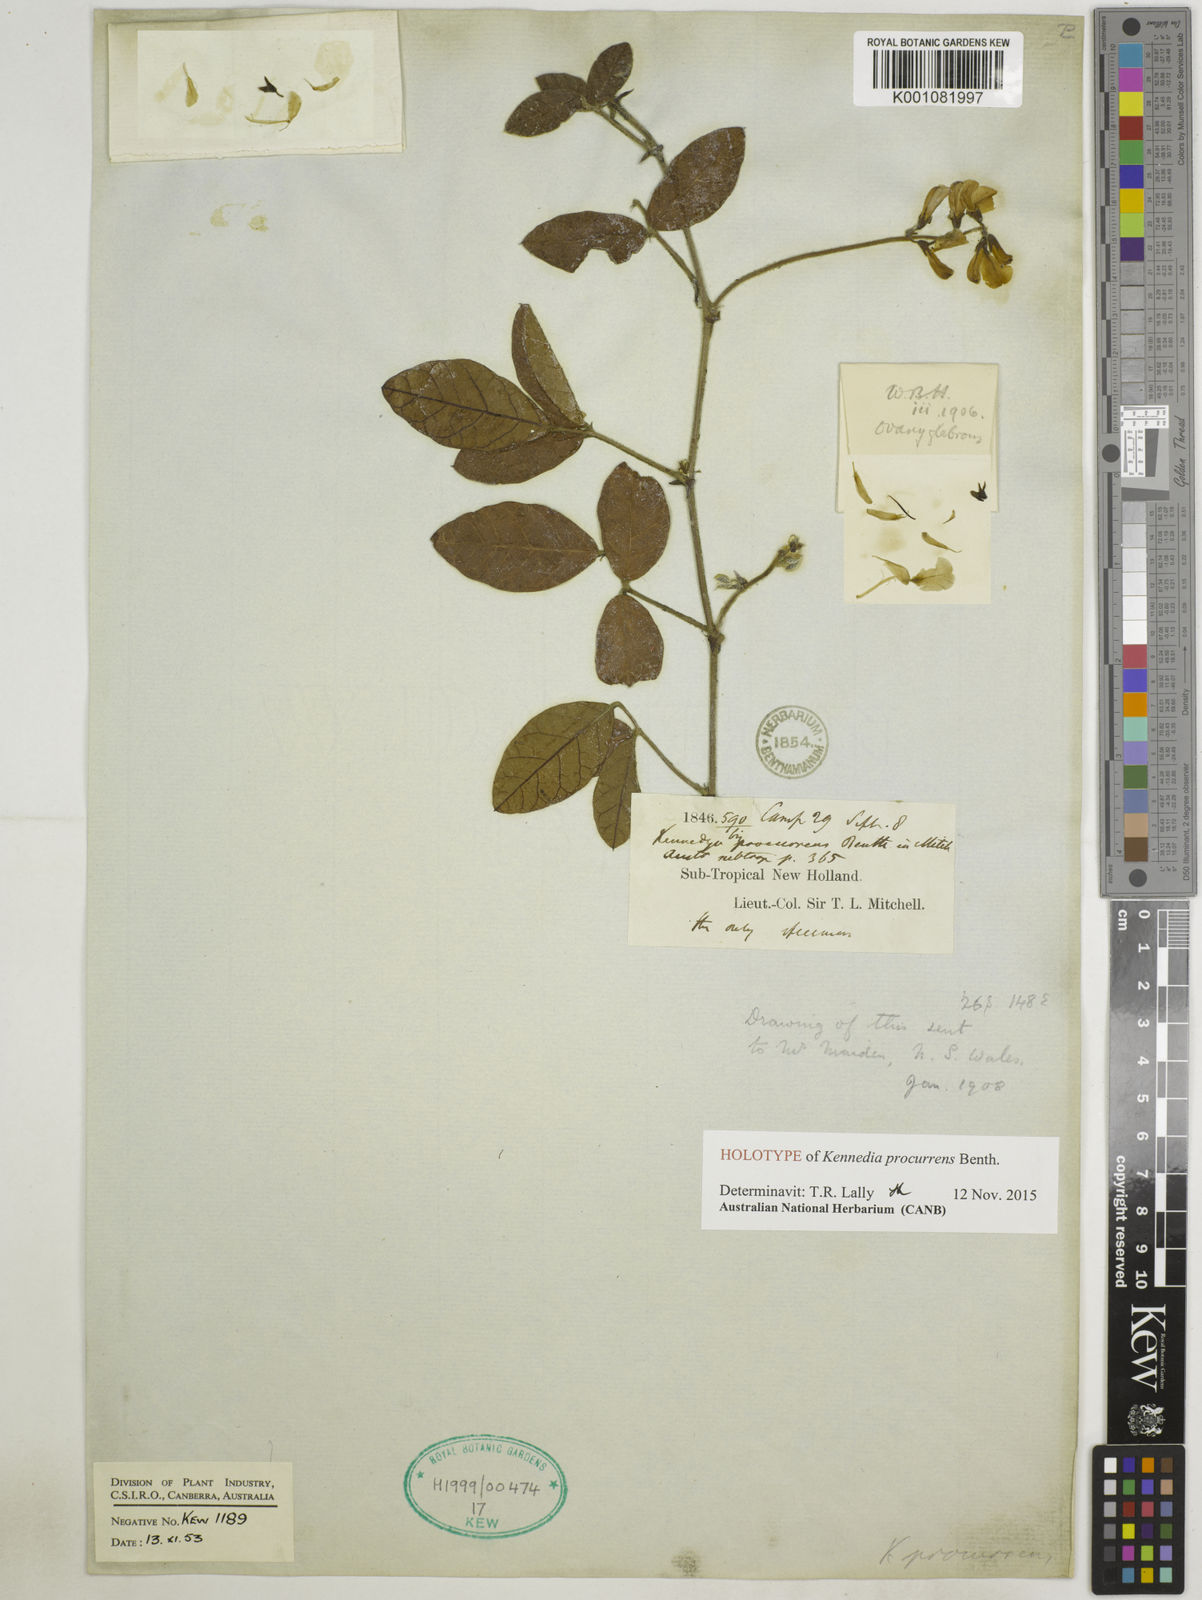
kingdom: Plantae
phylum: Tracheophyta
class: Magnoliopsida
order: Fabales
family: Fabaceae
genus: Kennedia
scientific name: Kennedia procurrens
